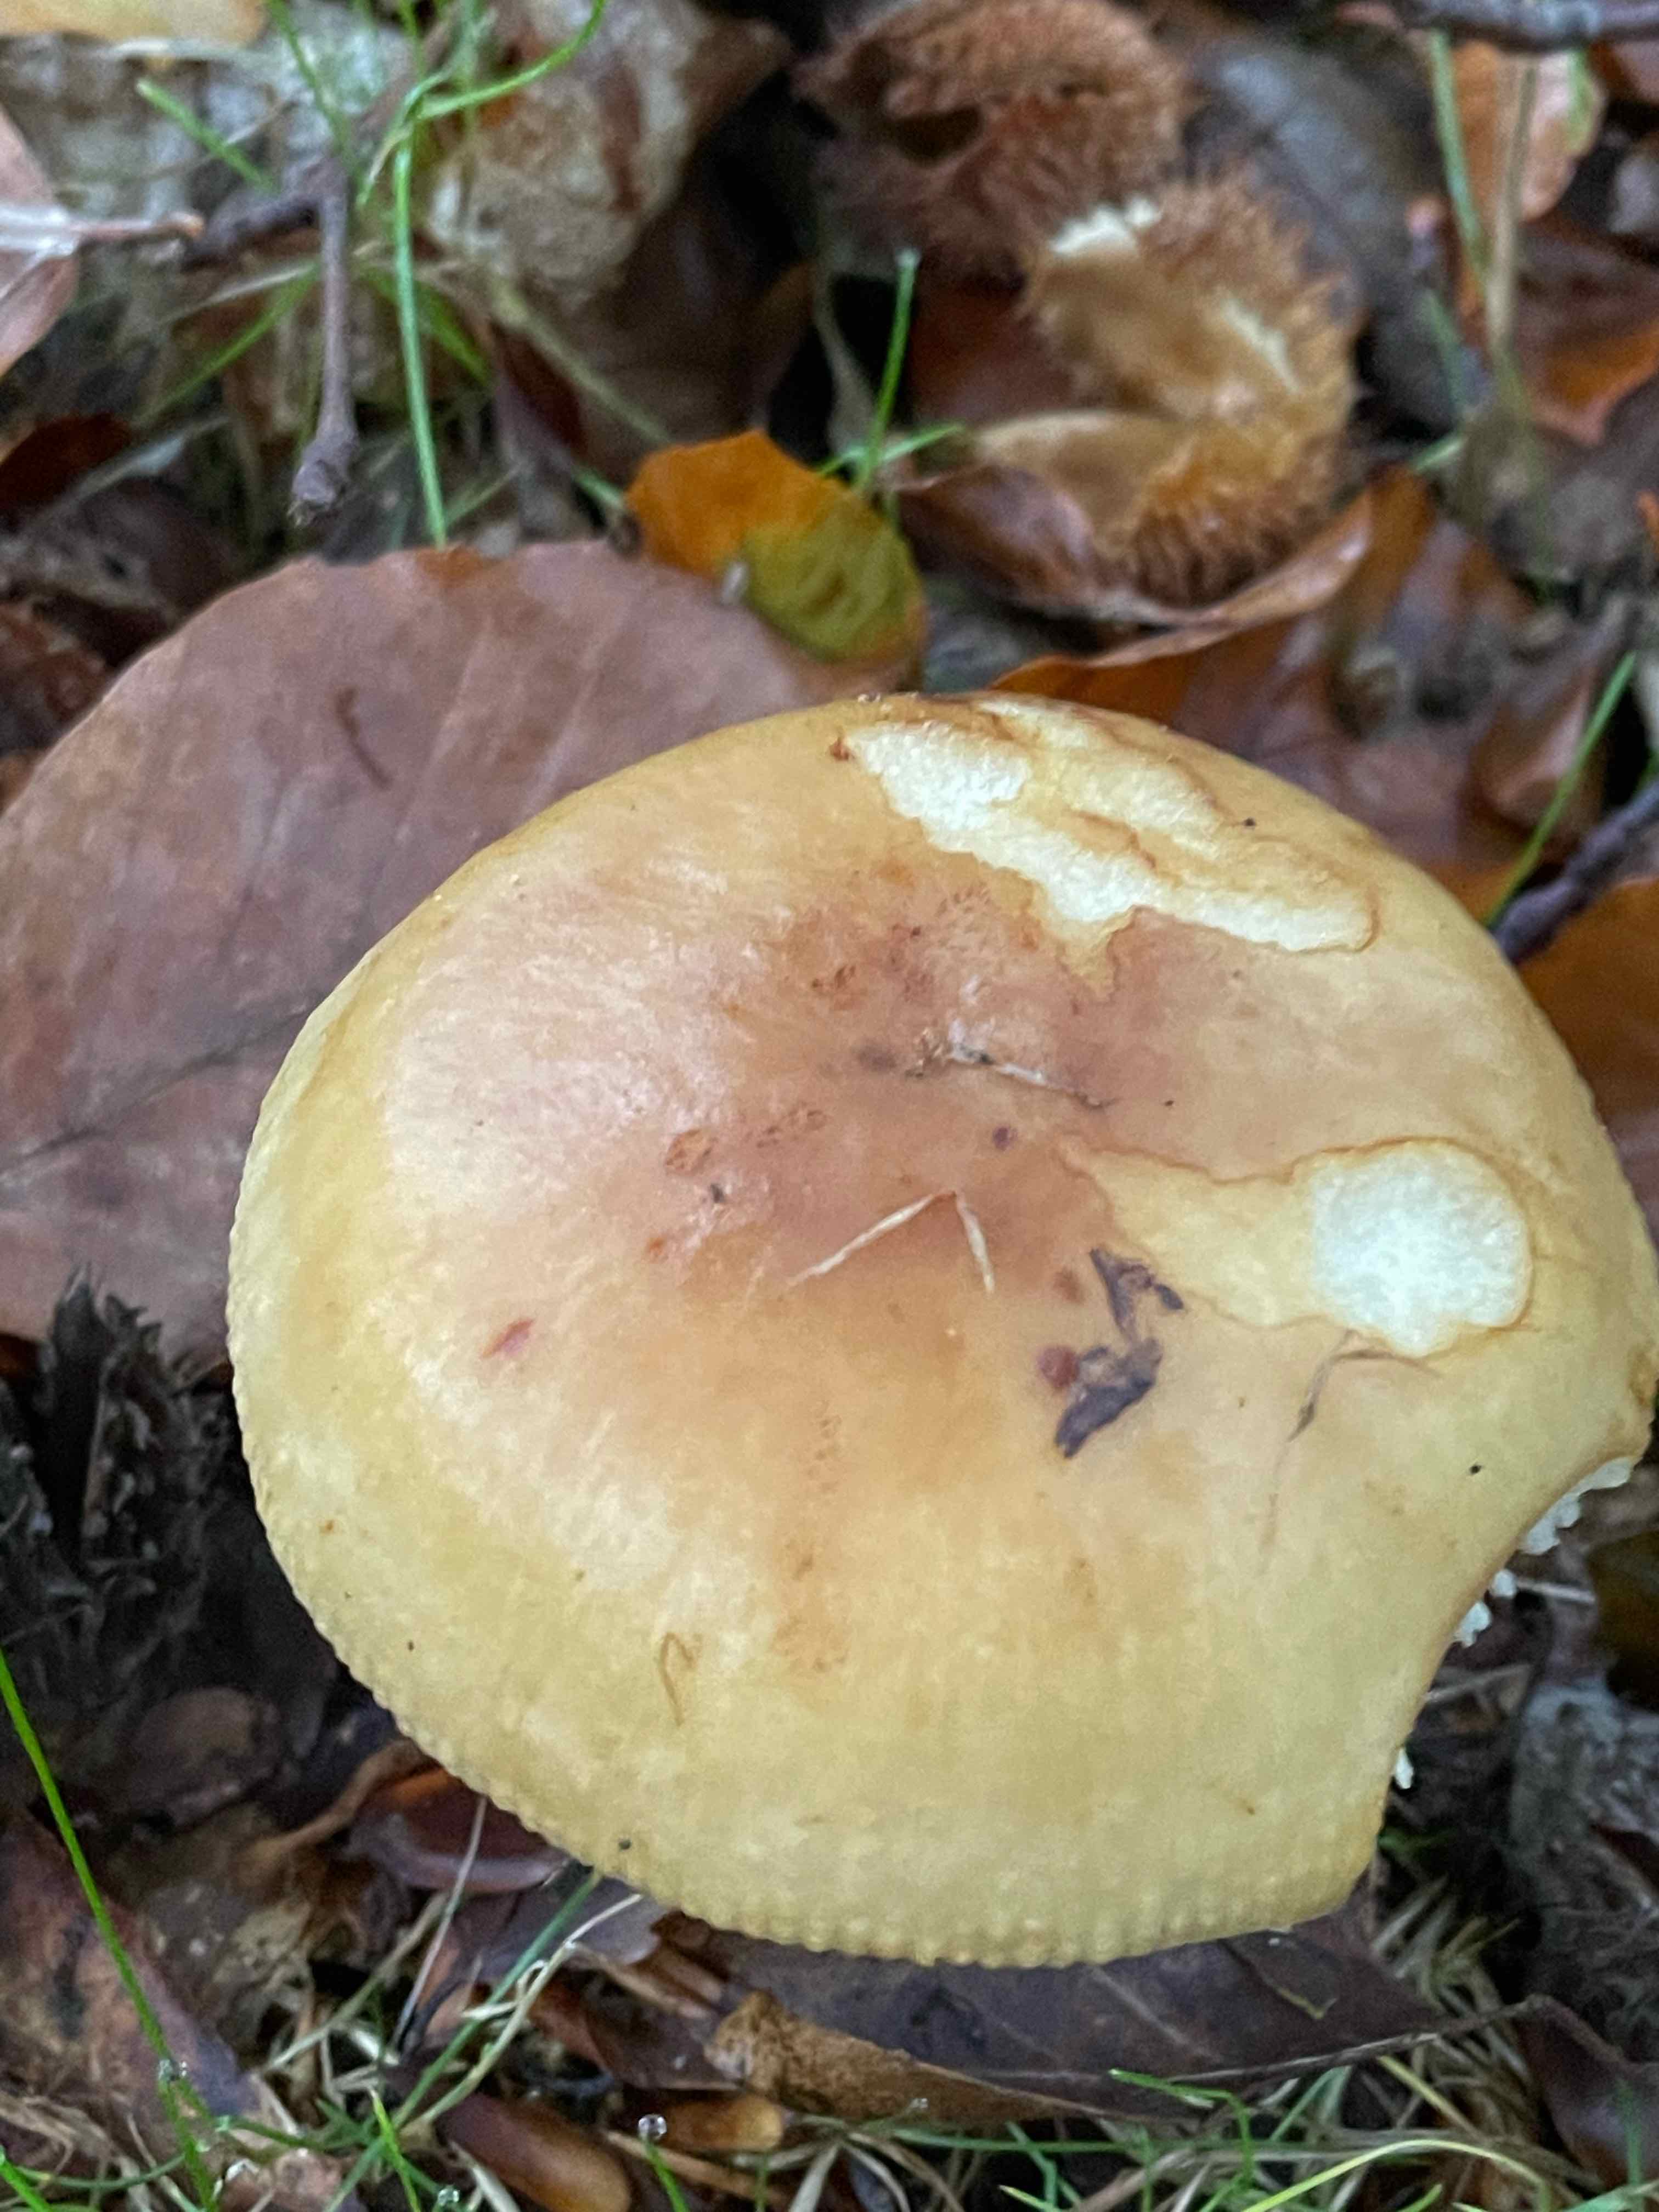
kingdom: Fungi
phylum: Basidiomycota
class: Agaricomycetes
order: Russulales
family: Russulaceae
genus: Russula
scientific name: Russula grata
